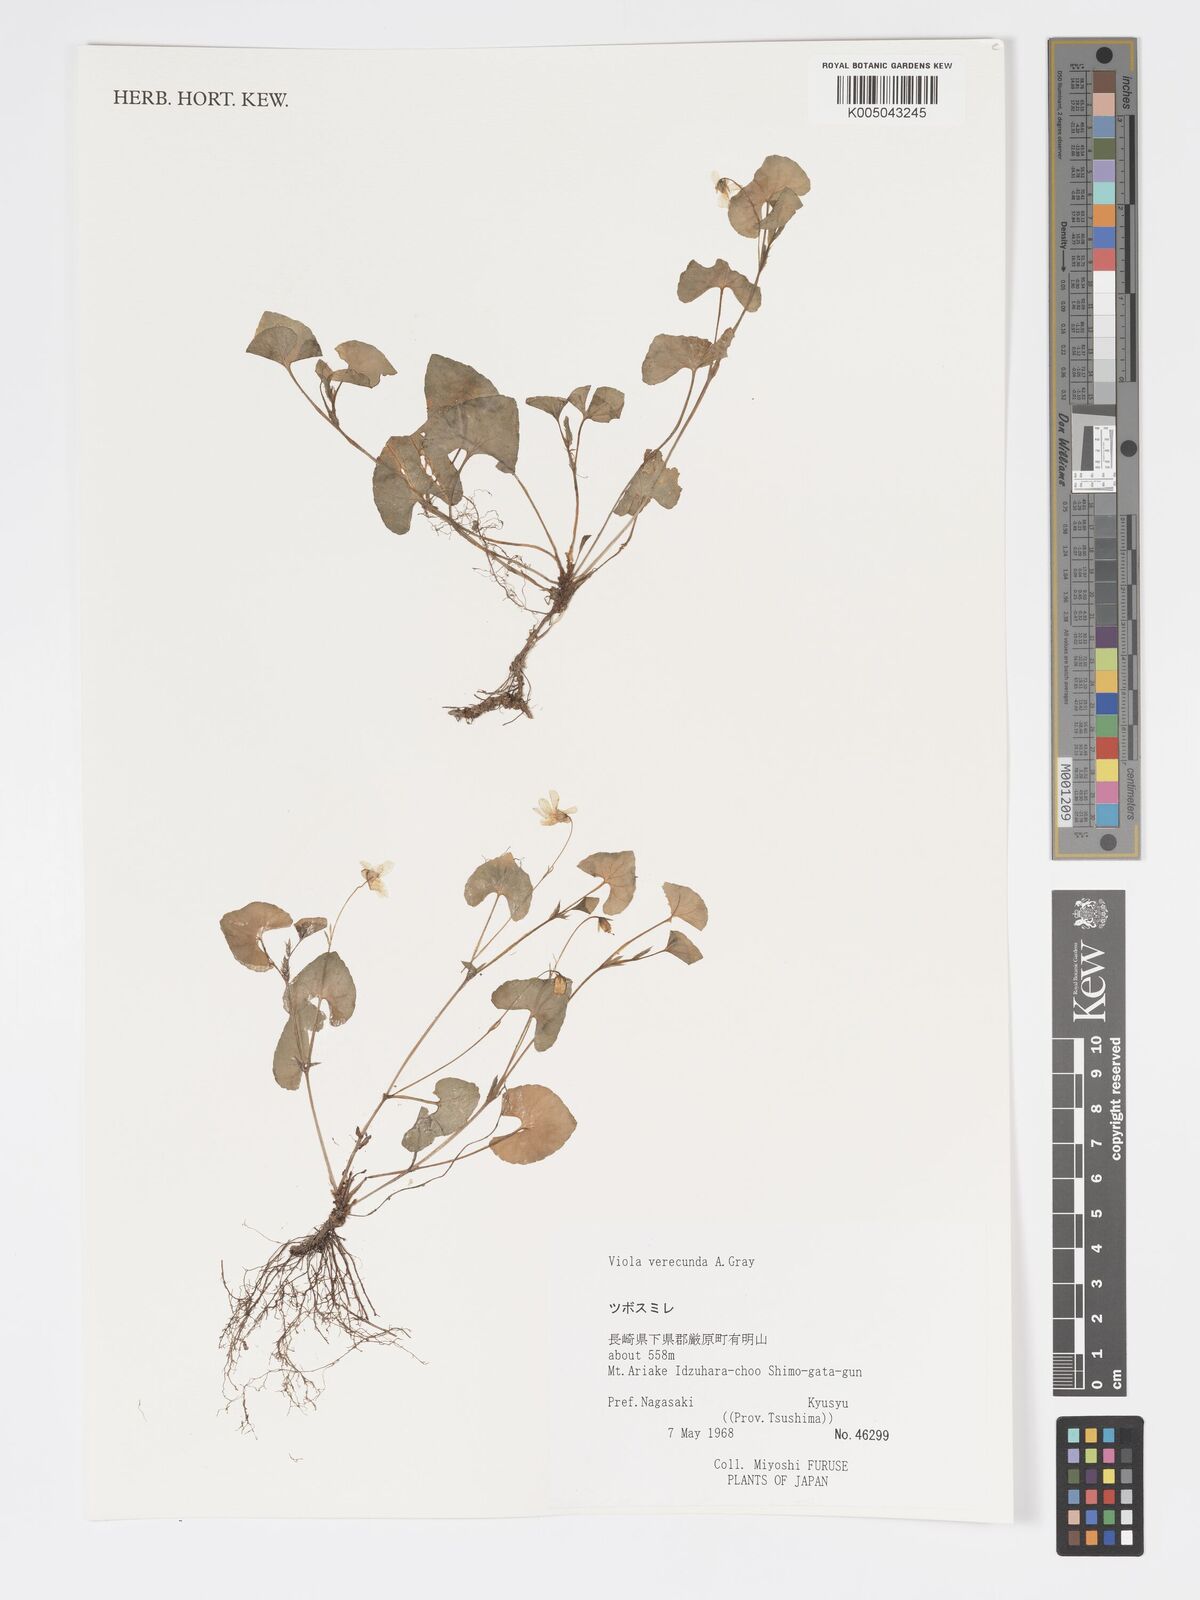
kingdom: Plantae
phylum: Tracheophyta
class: Magnoliopsida
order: Malpighiales
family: Violaceae
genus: Viola
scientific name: Viola hamiltoniana
